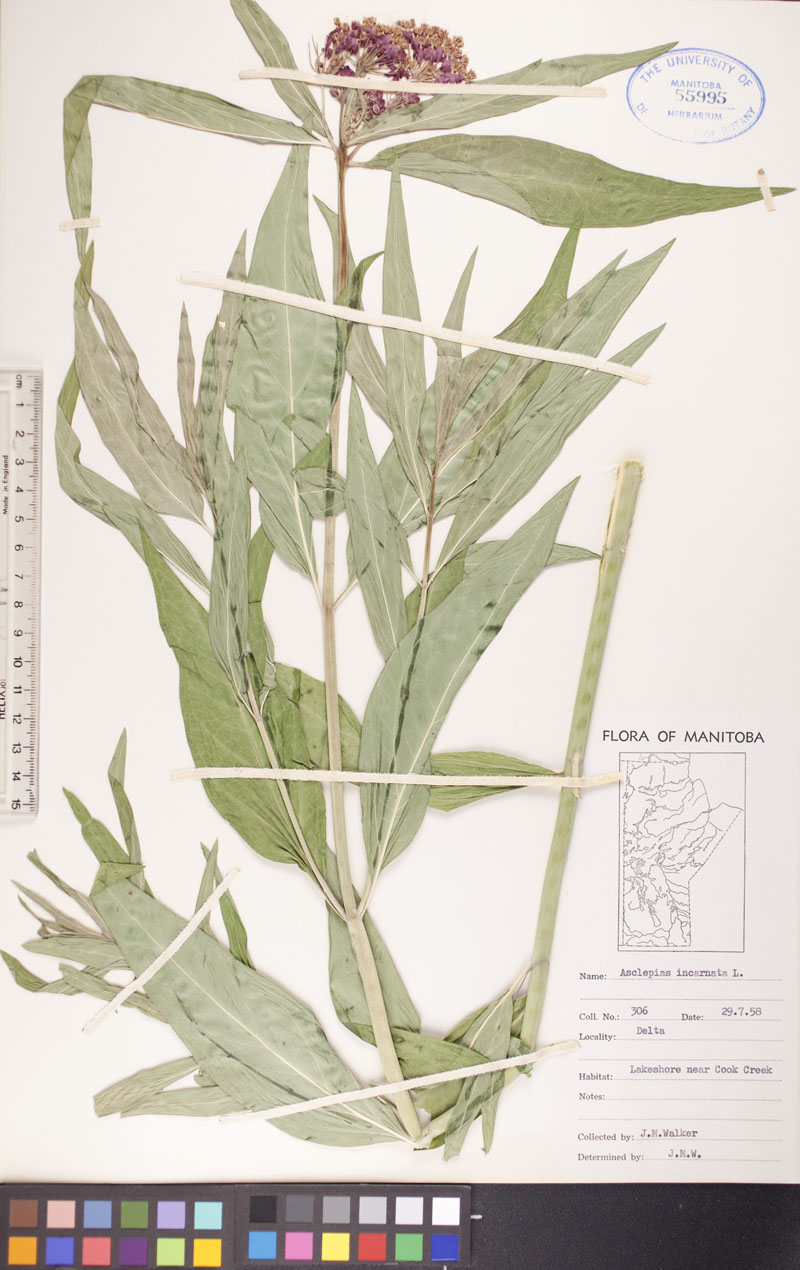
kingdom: Plantae
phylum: Tracheophyta
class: Magnoliopsida
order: Gentianales
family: Apocynaceae
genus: Asclepias
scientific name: Asclepias incarnata
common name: Swamp milkweed
